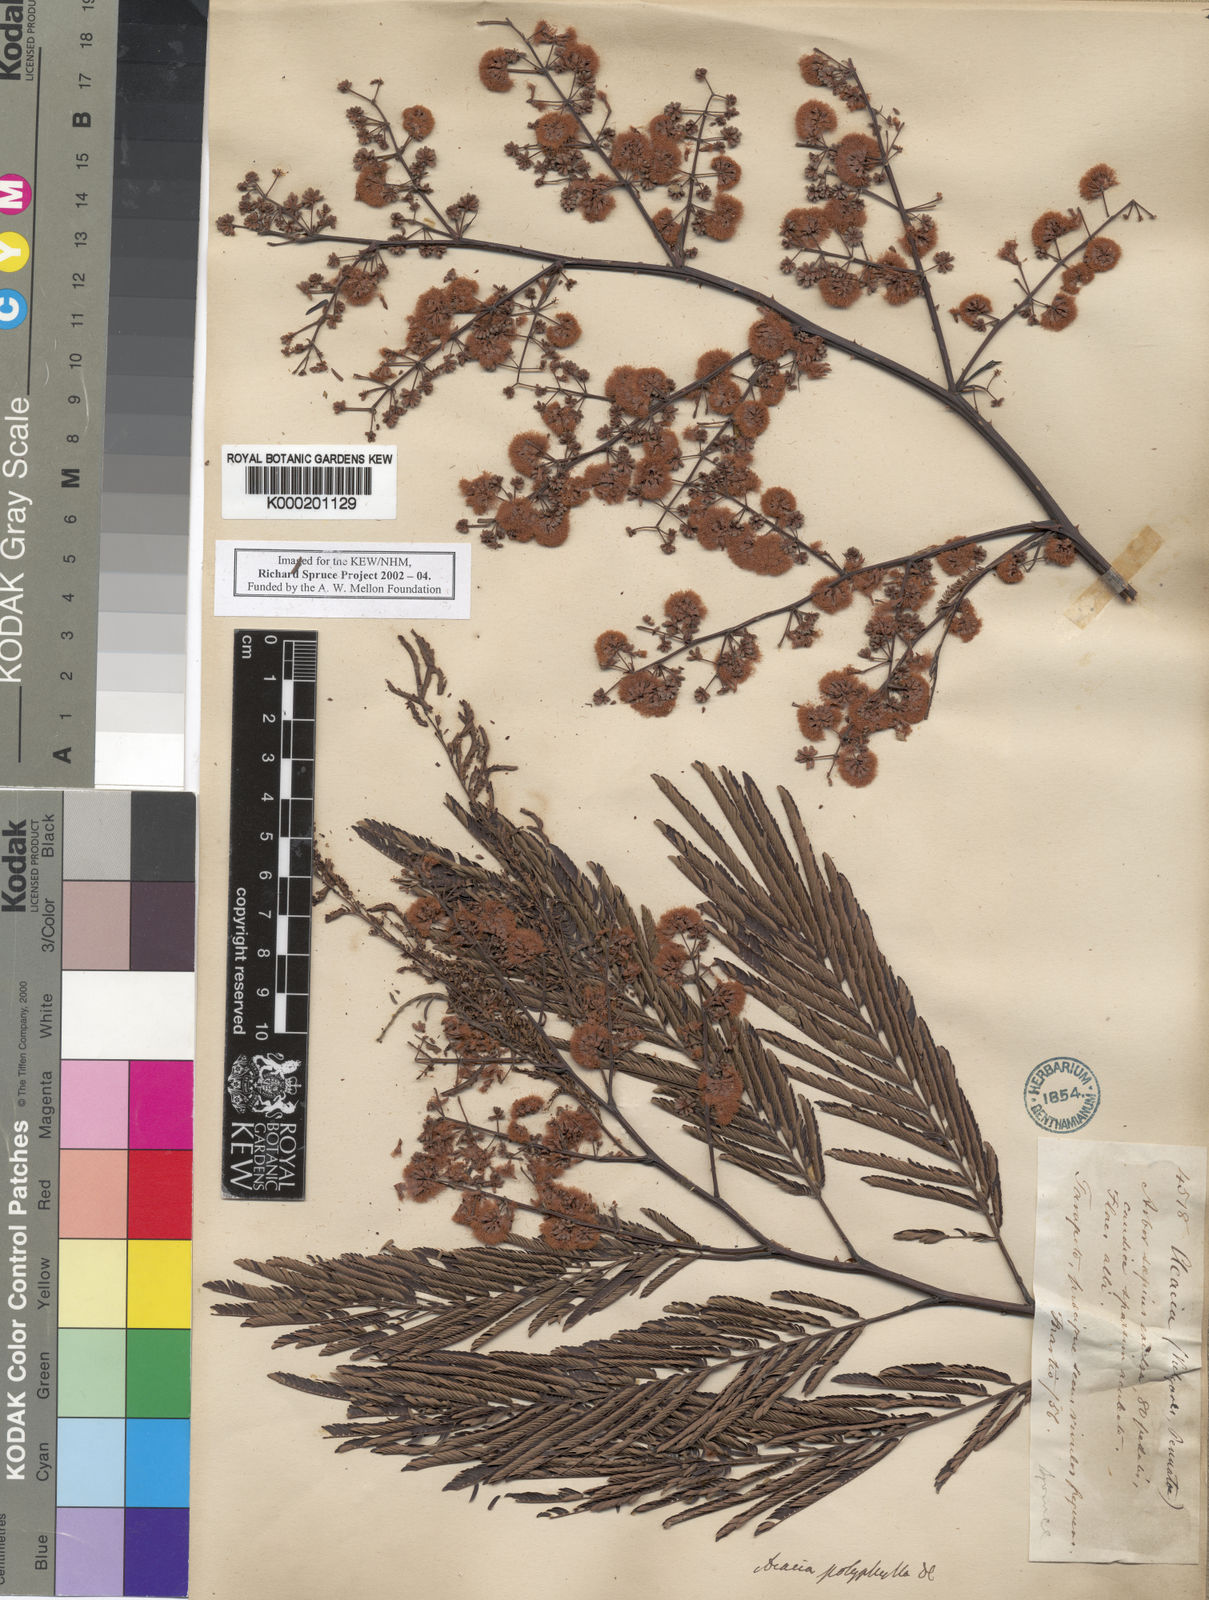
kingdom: Plantae
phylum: Tracheophyta
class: Magnoliopsida
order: Fabales
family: Fabaceae
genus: Senegalia
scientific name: Senegalia polyphylla
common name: White-tamarind
